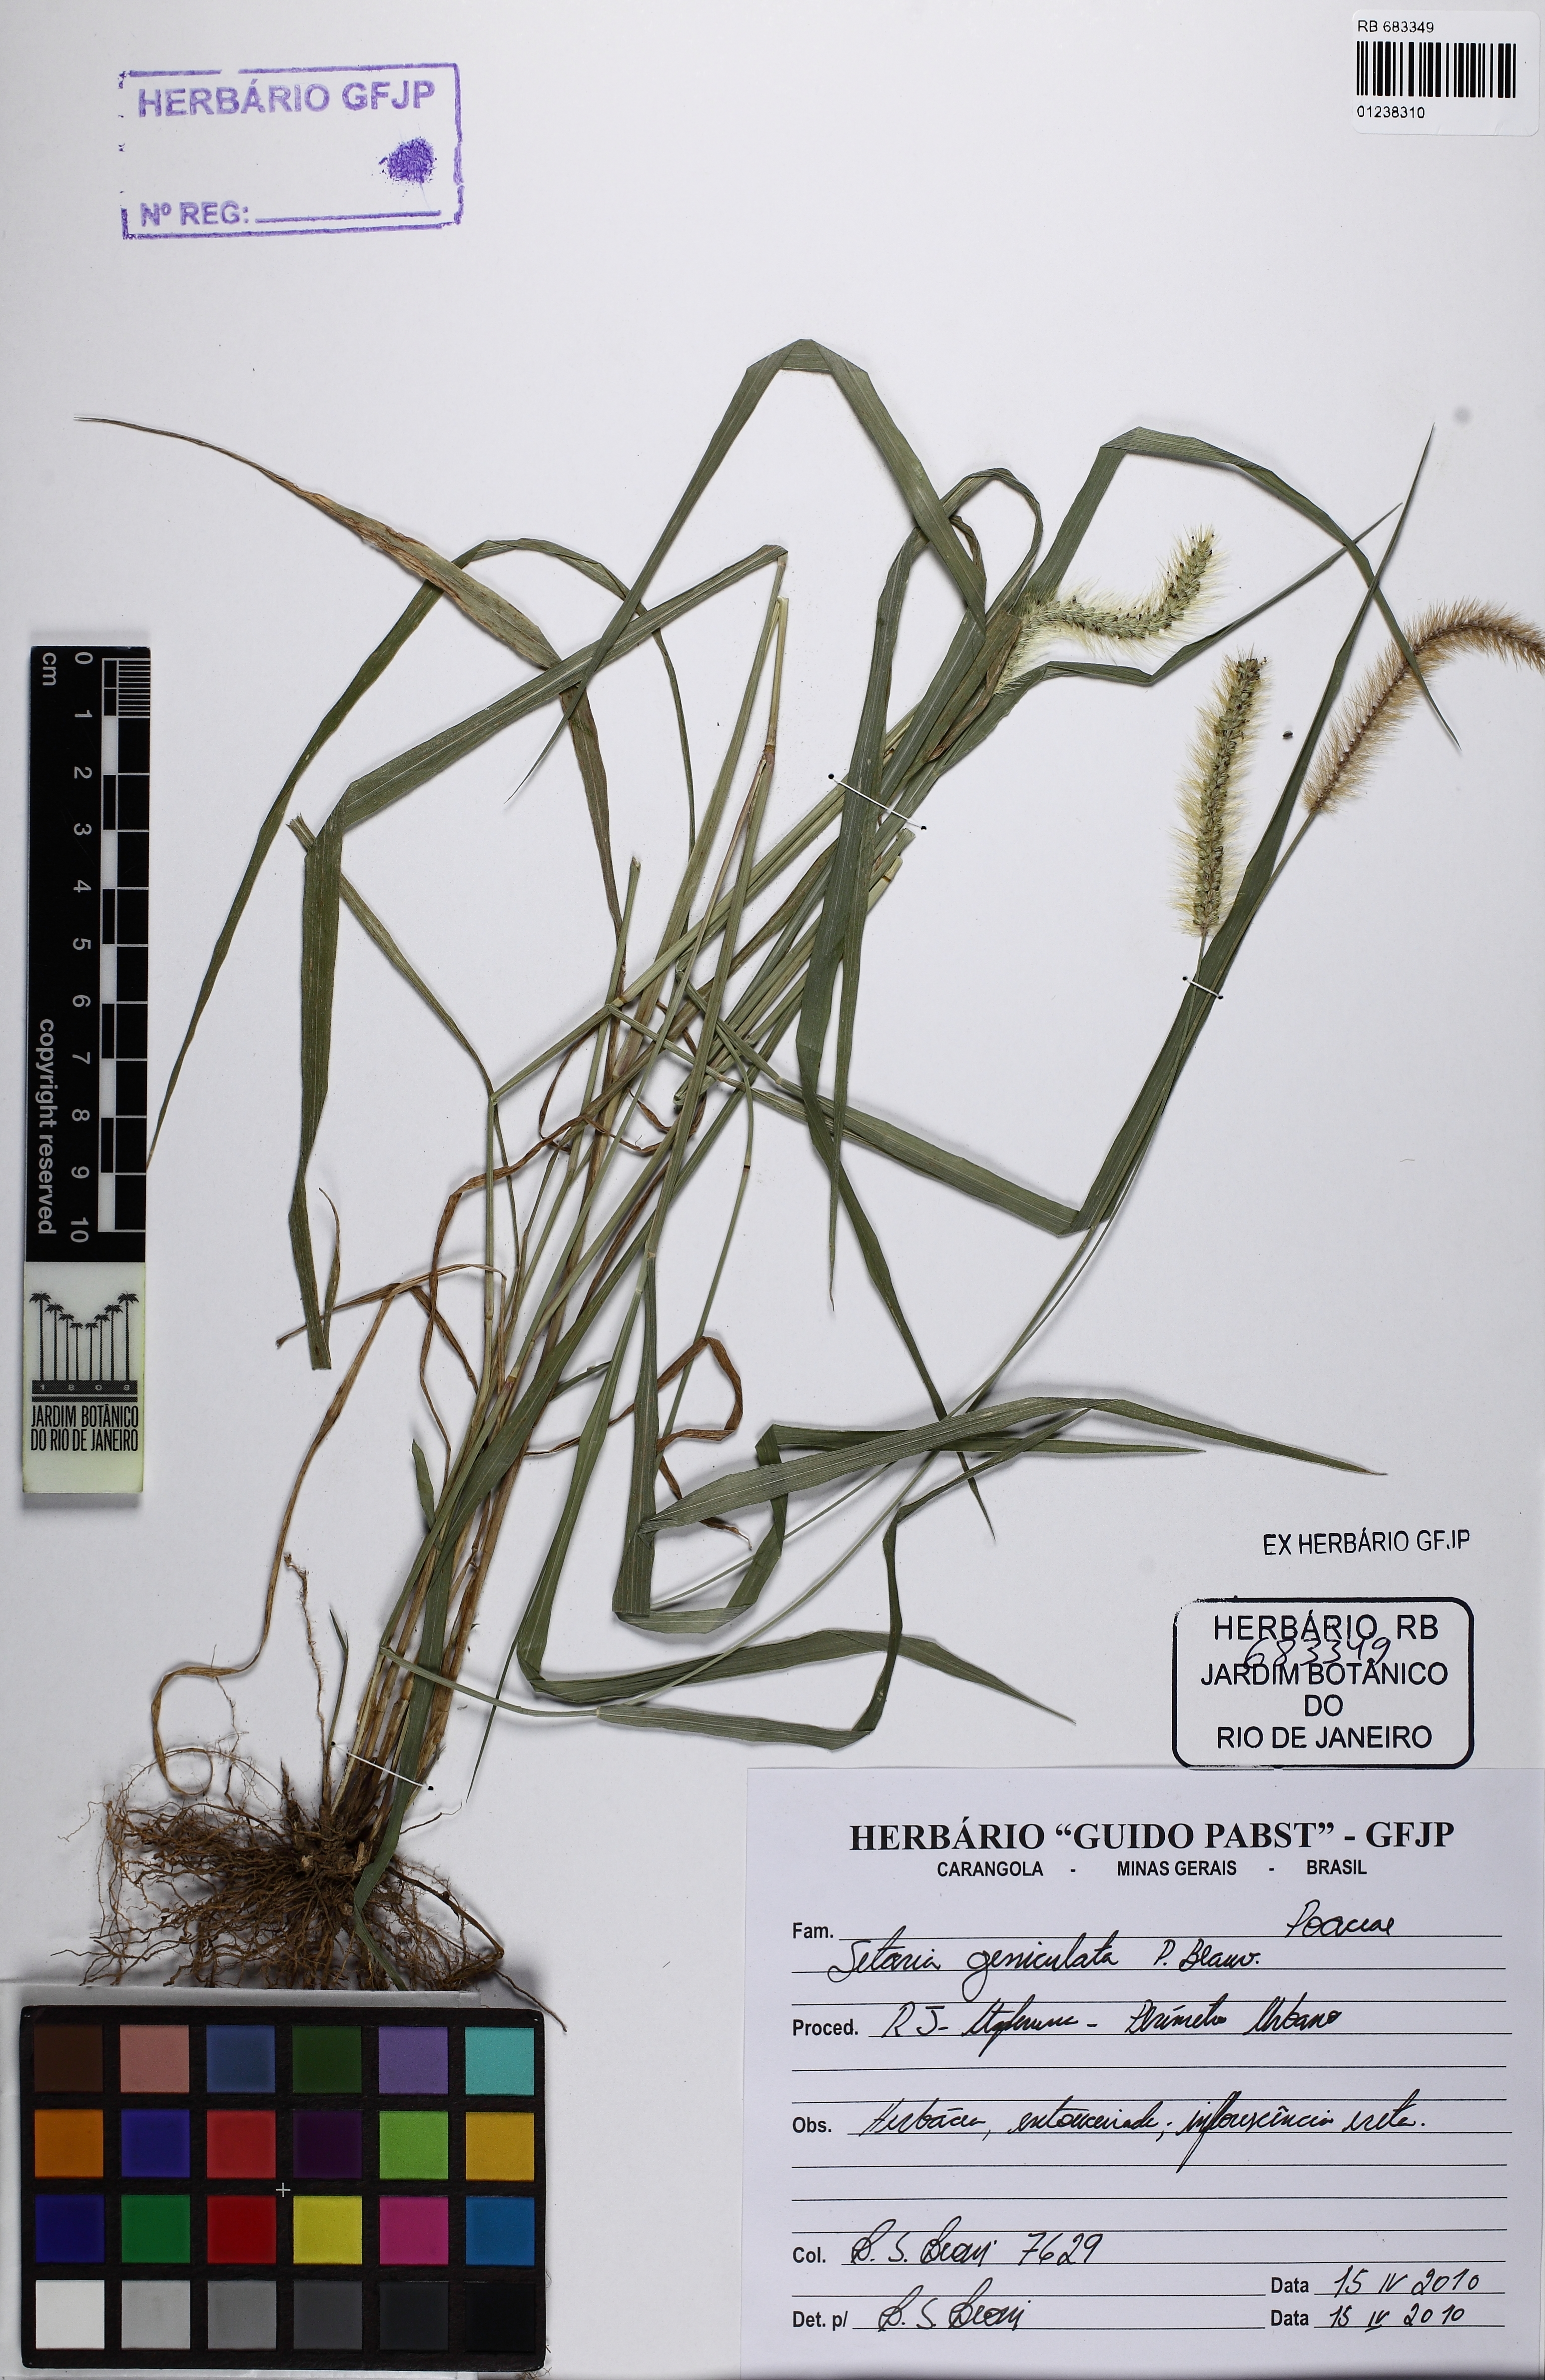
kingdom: Plantae
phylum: Tracheophyta
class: Liliopsida
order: Poales
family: Poaceae
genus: Setaria
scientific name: Setaria parviflora
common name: Knotroot bristle-grass
